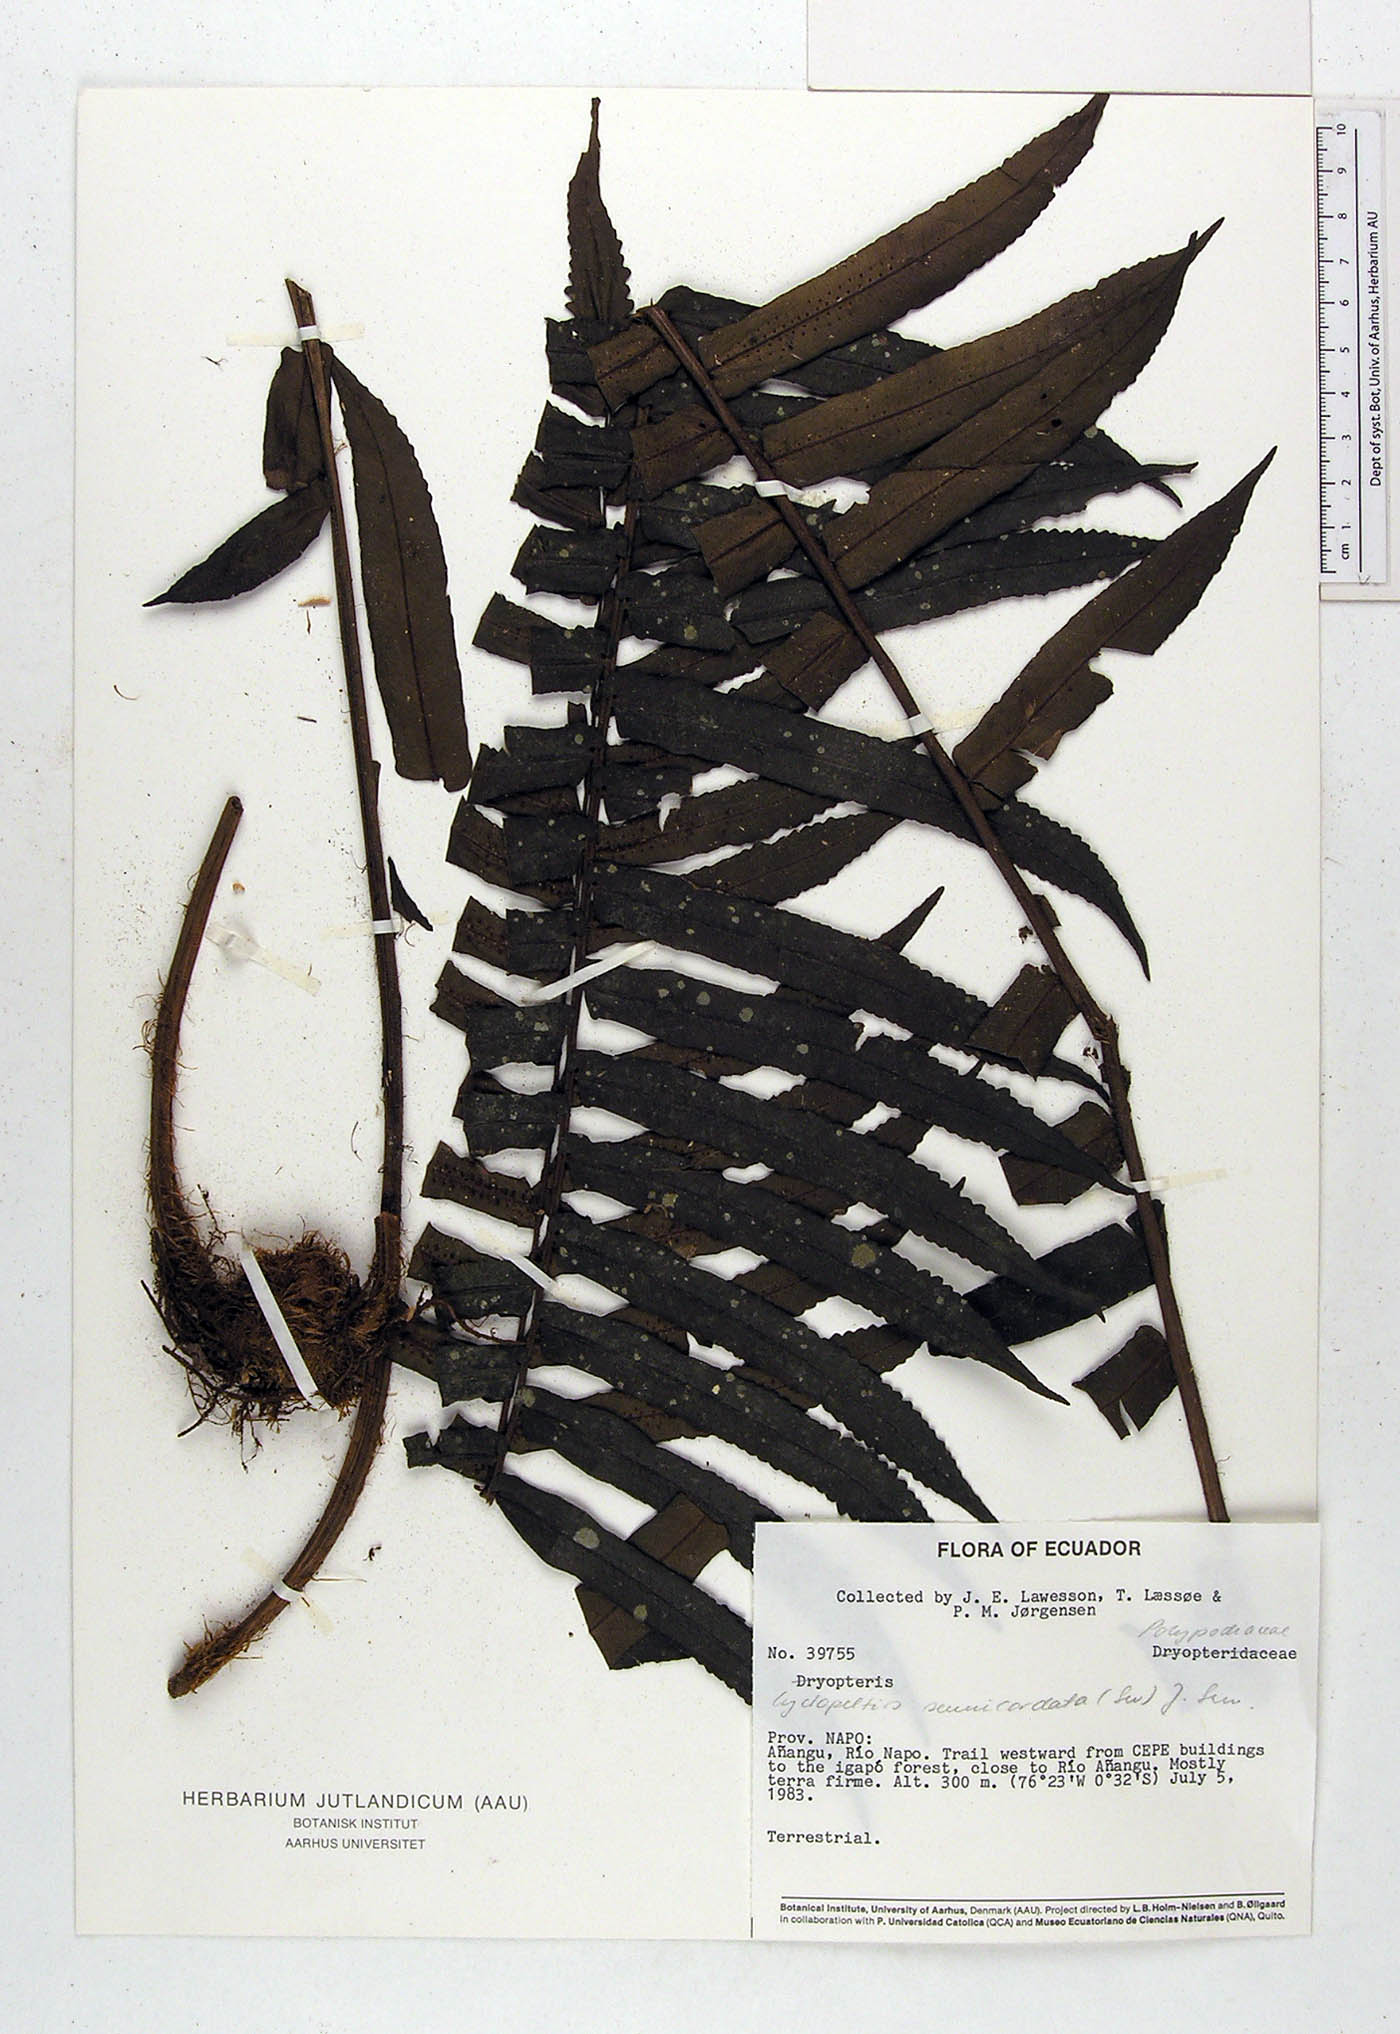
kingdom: Plantae
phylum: Tracheophyta
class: Polypodiopsida
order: Polypodiales
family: Lomariopsidaceae
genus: Cyclopeltis
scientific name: Cyclopeltis semicordata
